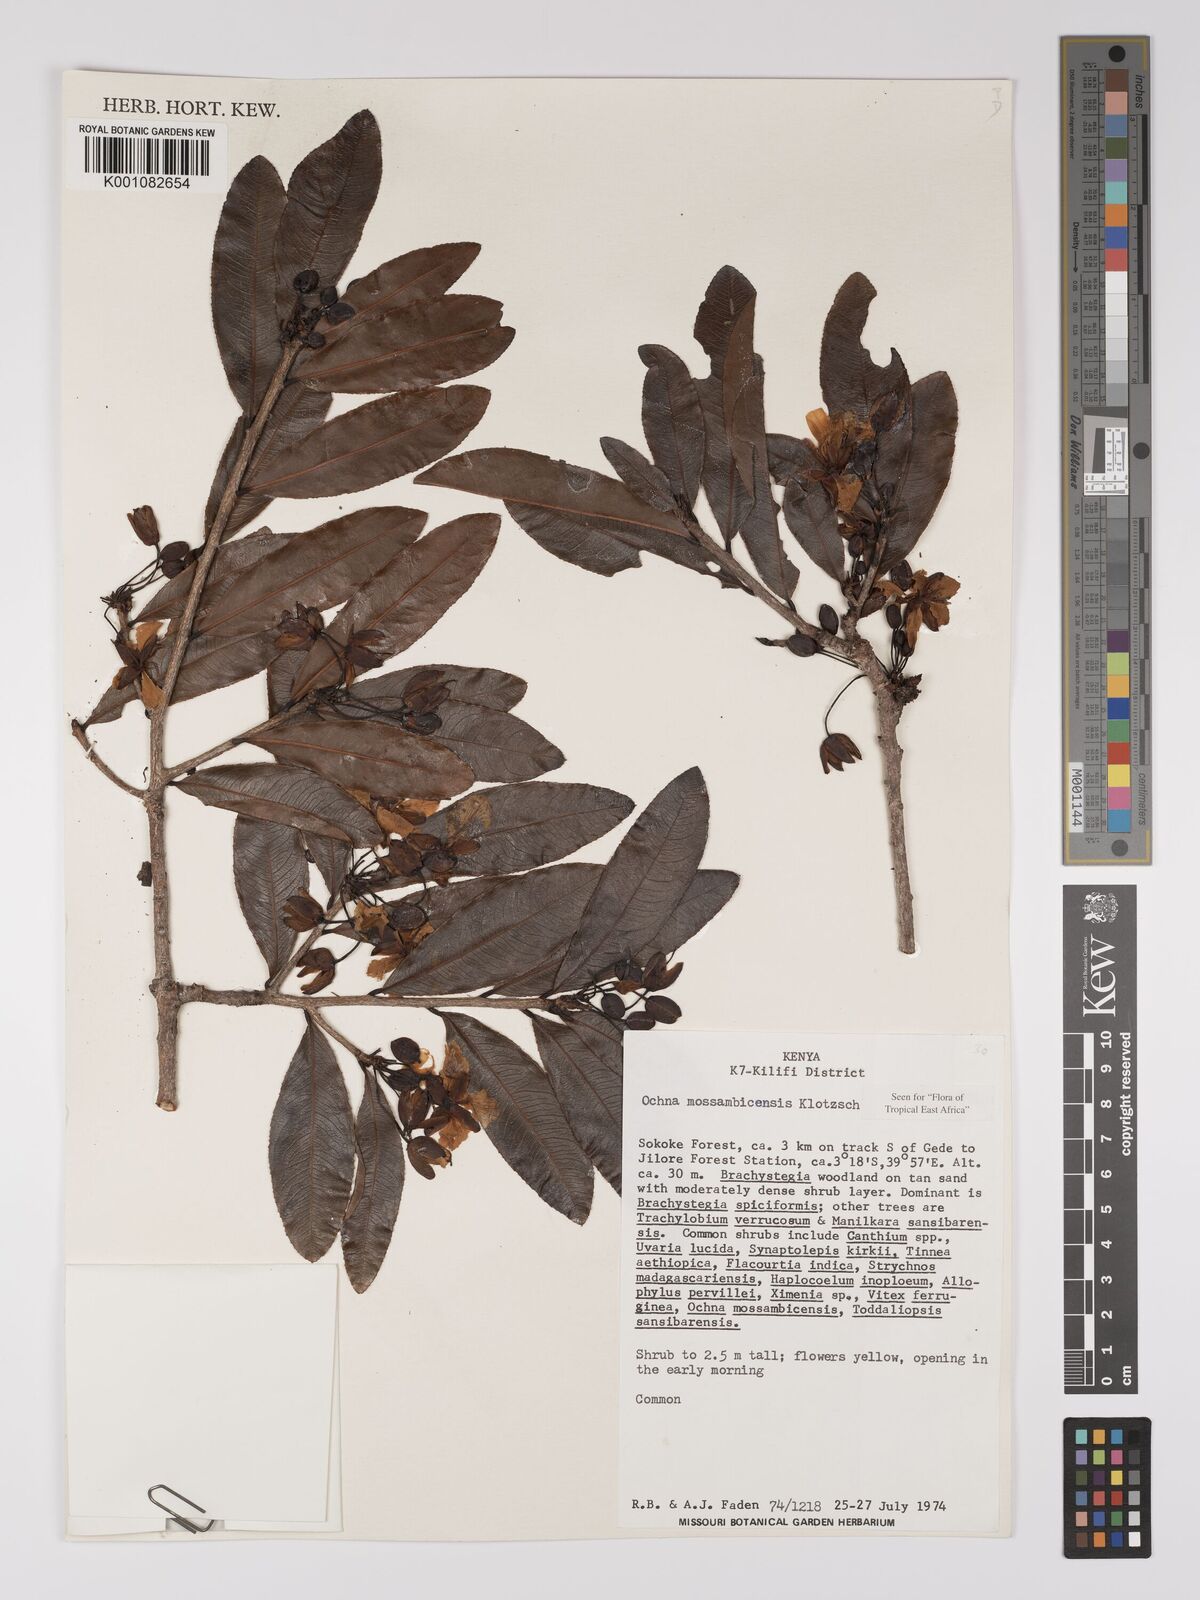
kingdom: Plantae
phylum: Tracheophyta
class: Magnoliopsida
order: Malpighiales
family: Ochnaceae
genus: Ochna
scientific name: Ochna atropurpurea
